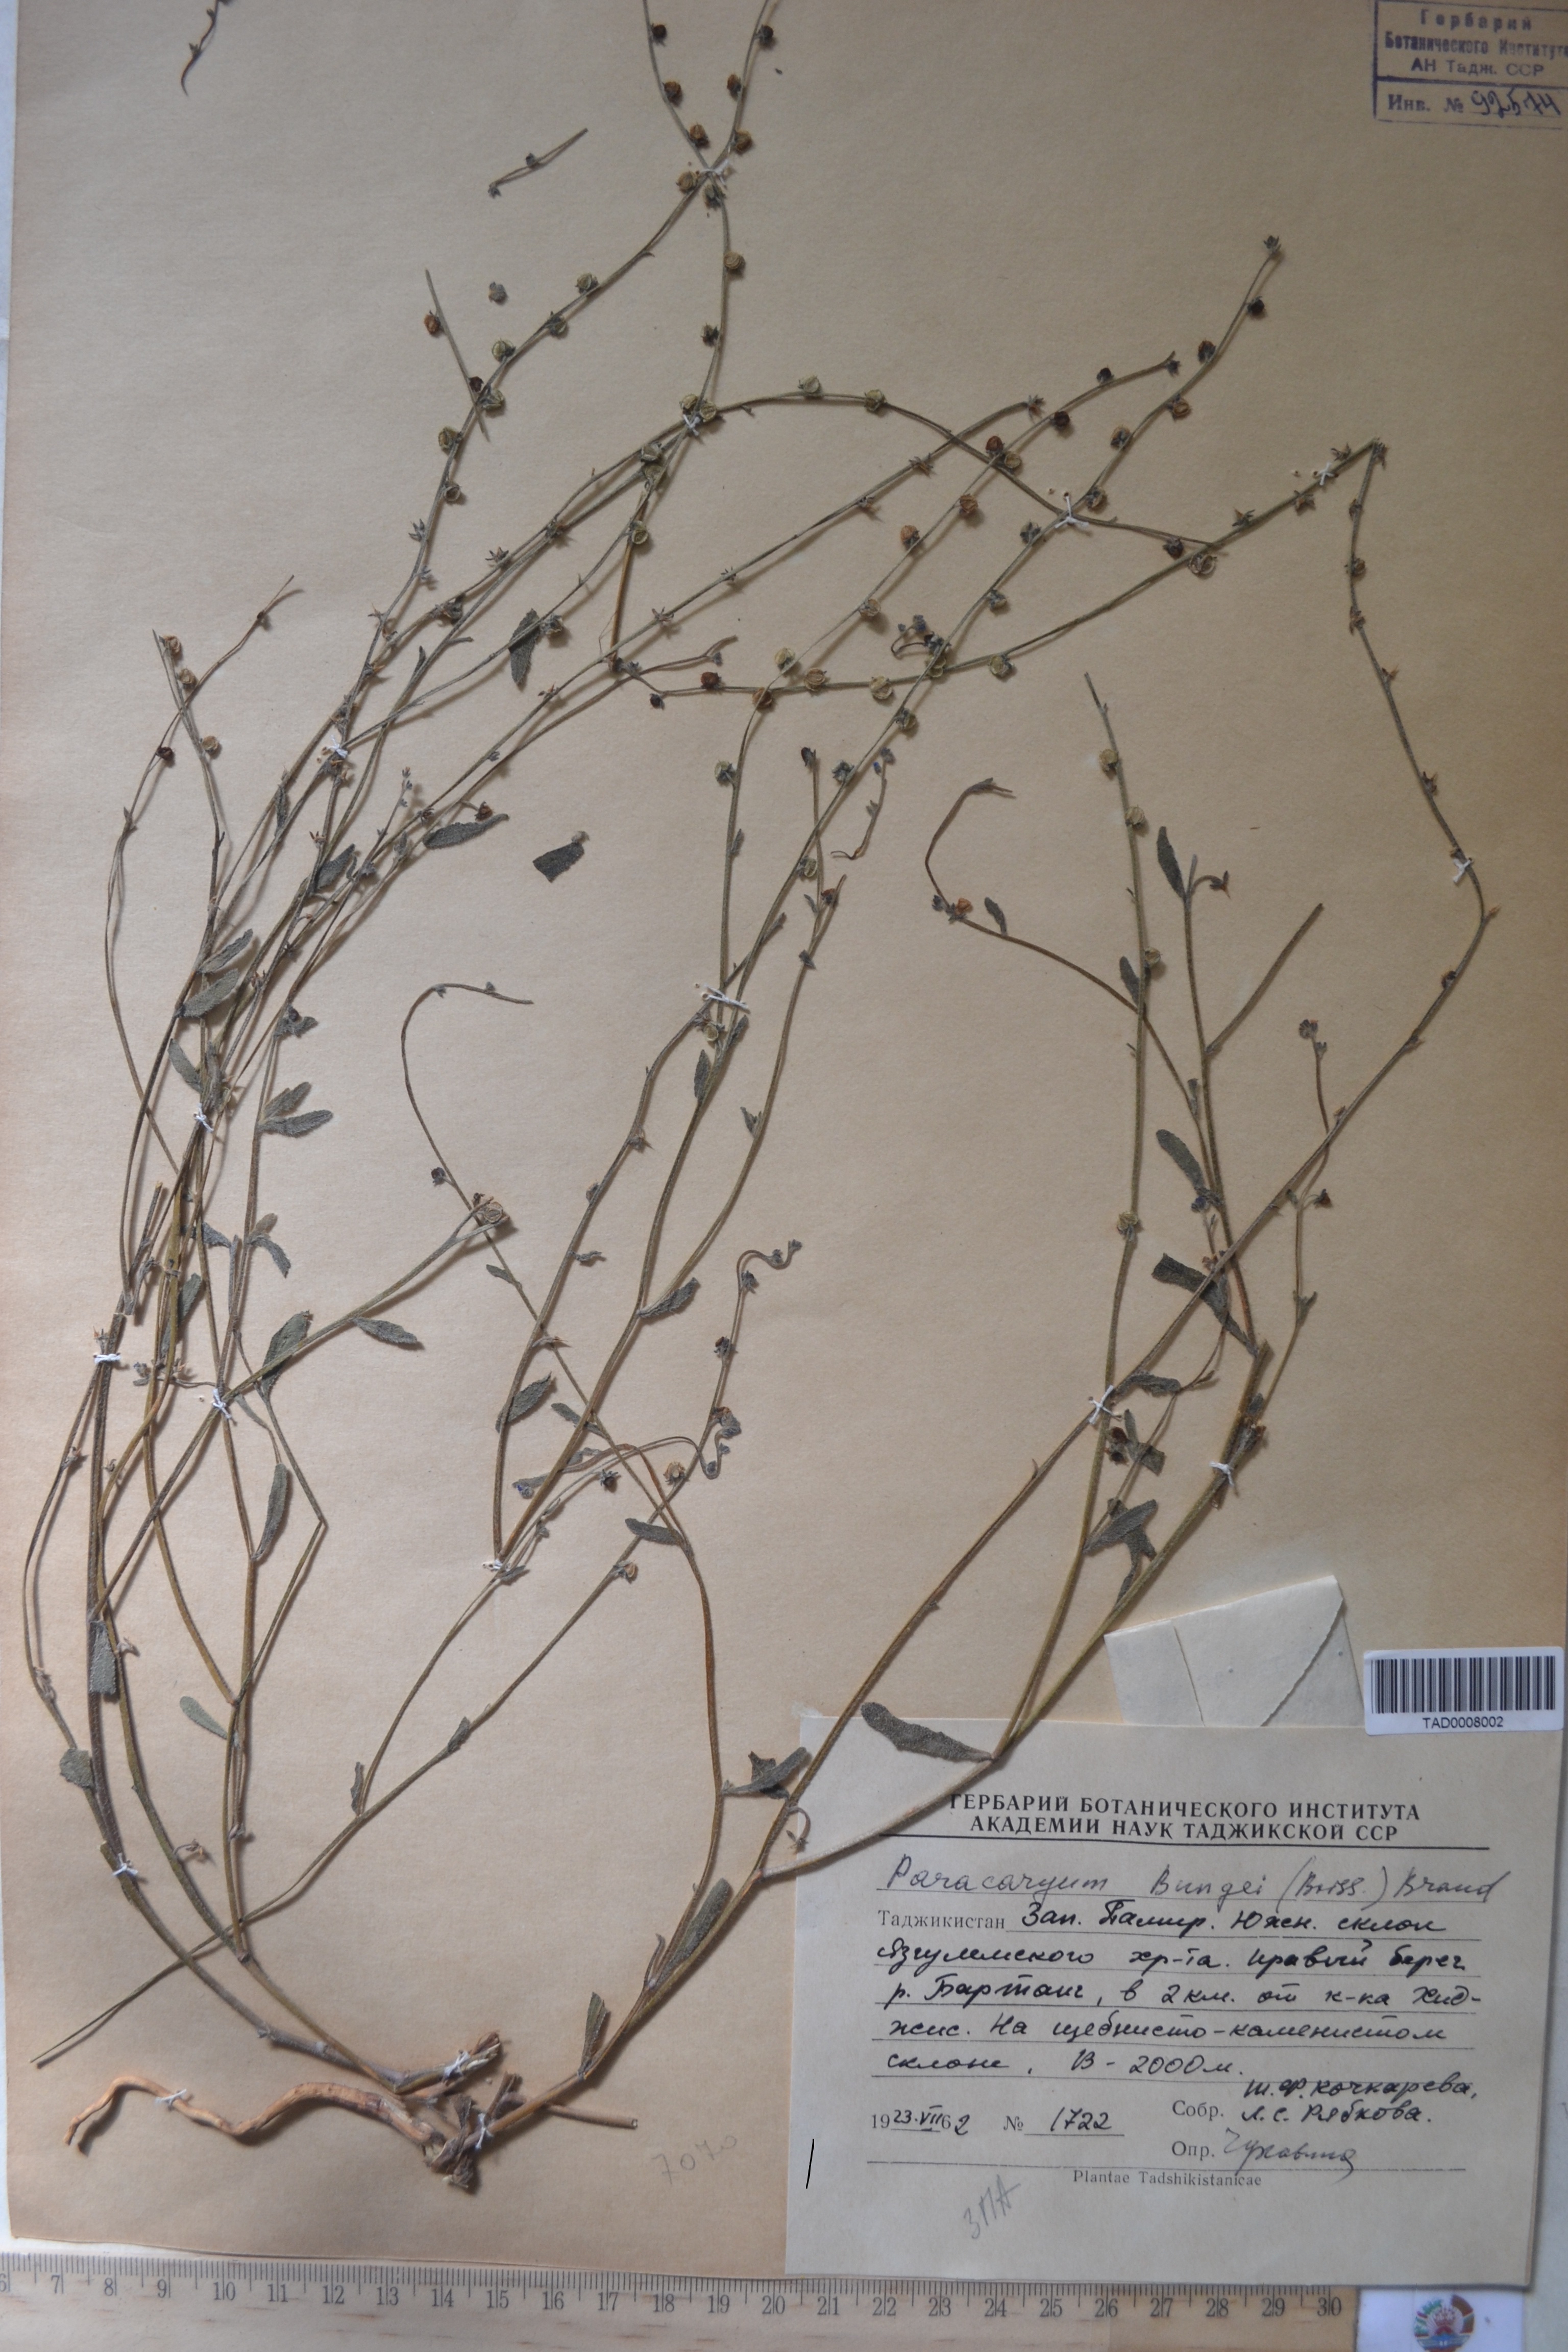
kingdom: Plantae
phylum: Tracheophyta
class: Magnoliopsida
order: Boraginales
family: Boraginaceae
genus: Paracaryum
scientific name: Paracaryum
